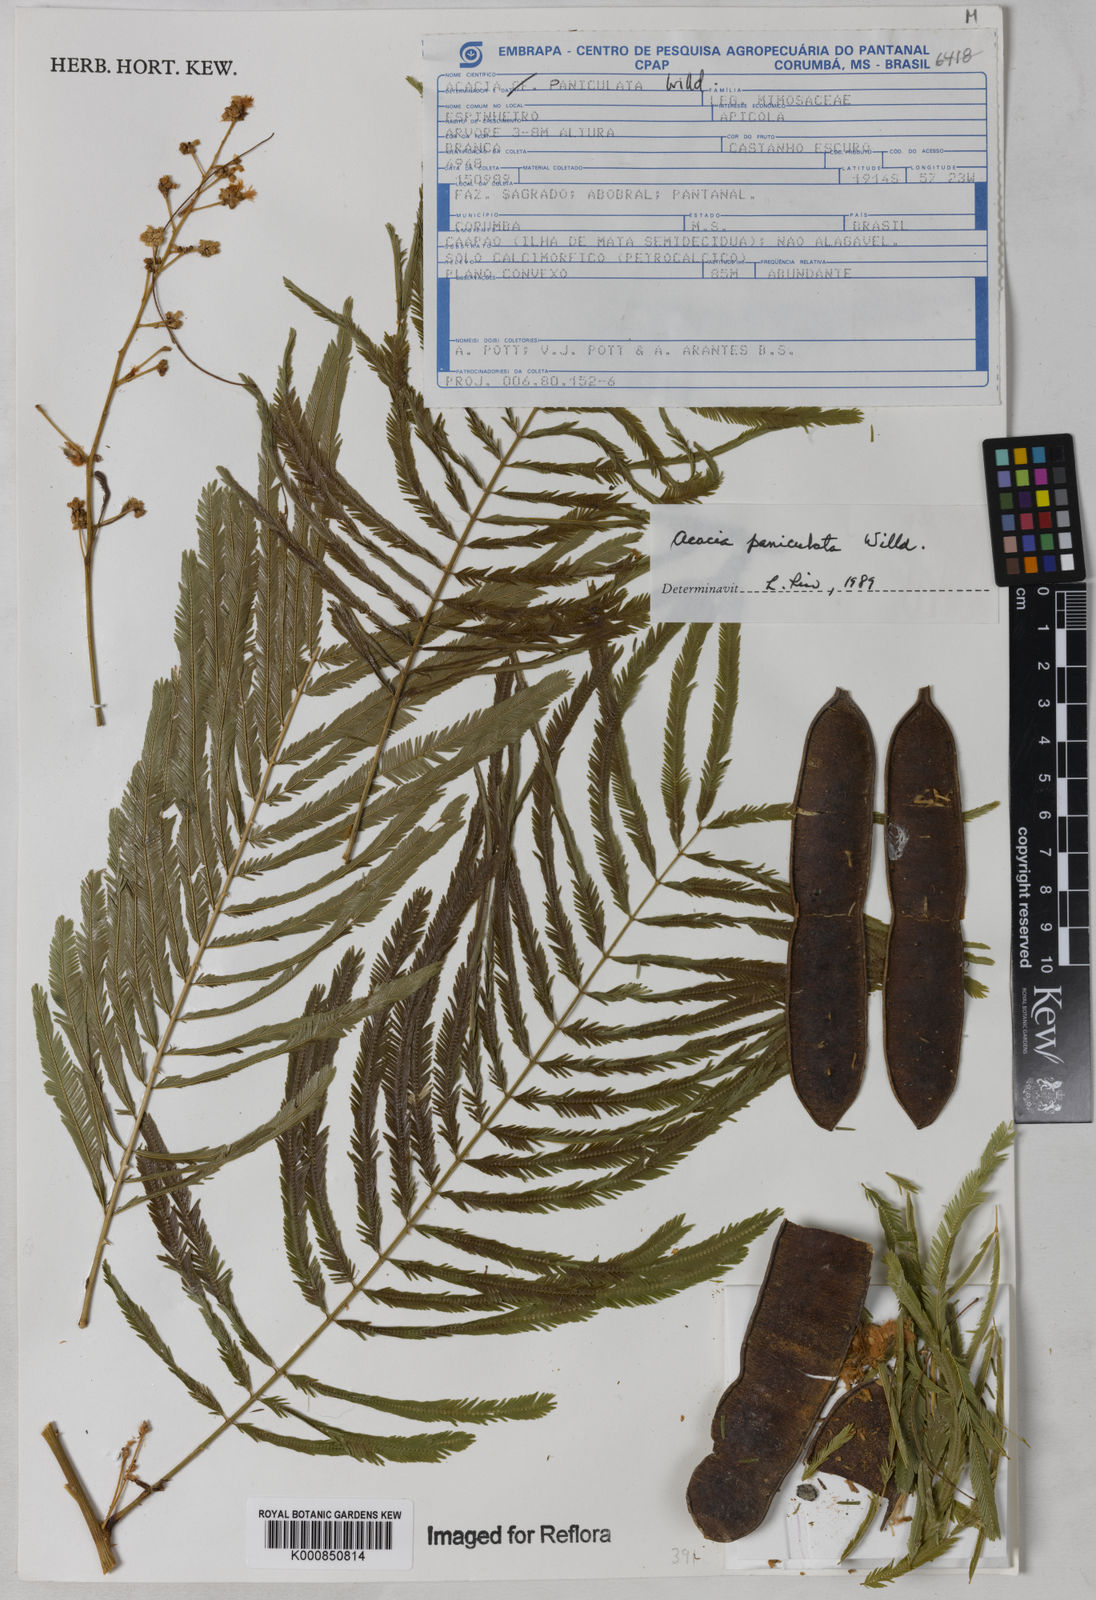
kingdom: Plantae
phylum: Tracheophyta
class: Magnoliopsida
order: Fabales
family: Fabaceae
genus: Senegalia
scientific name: Senegalia tenuifolia
